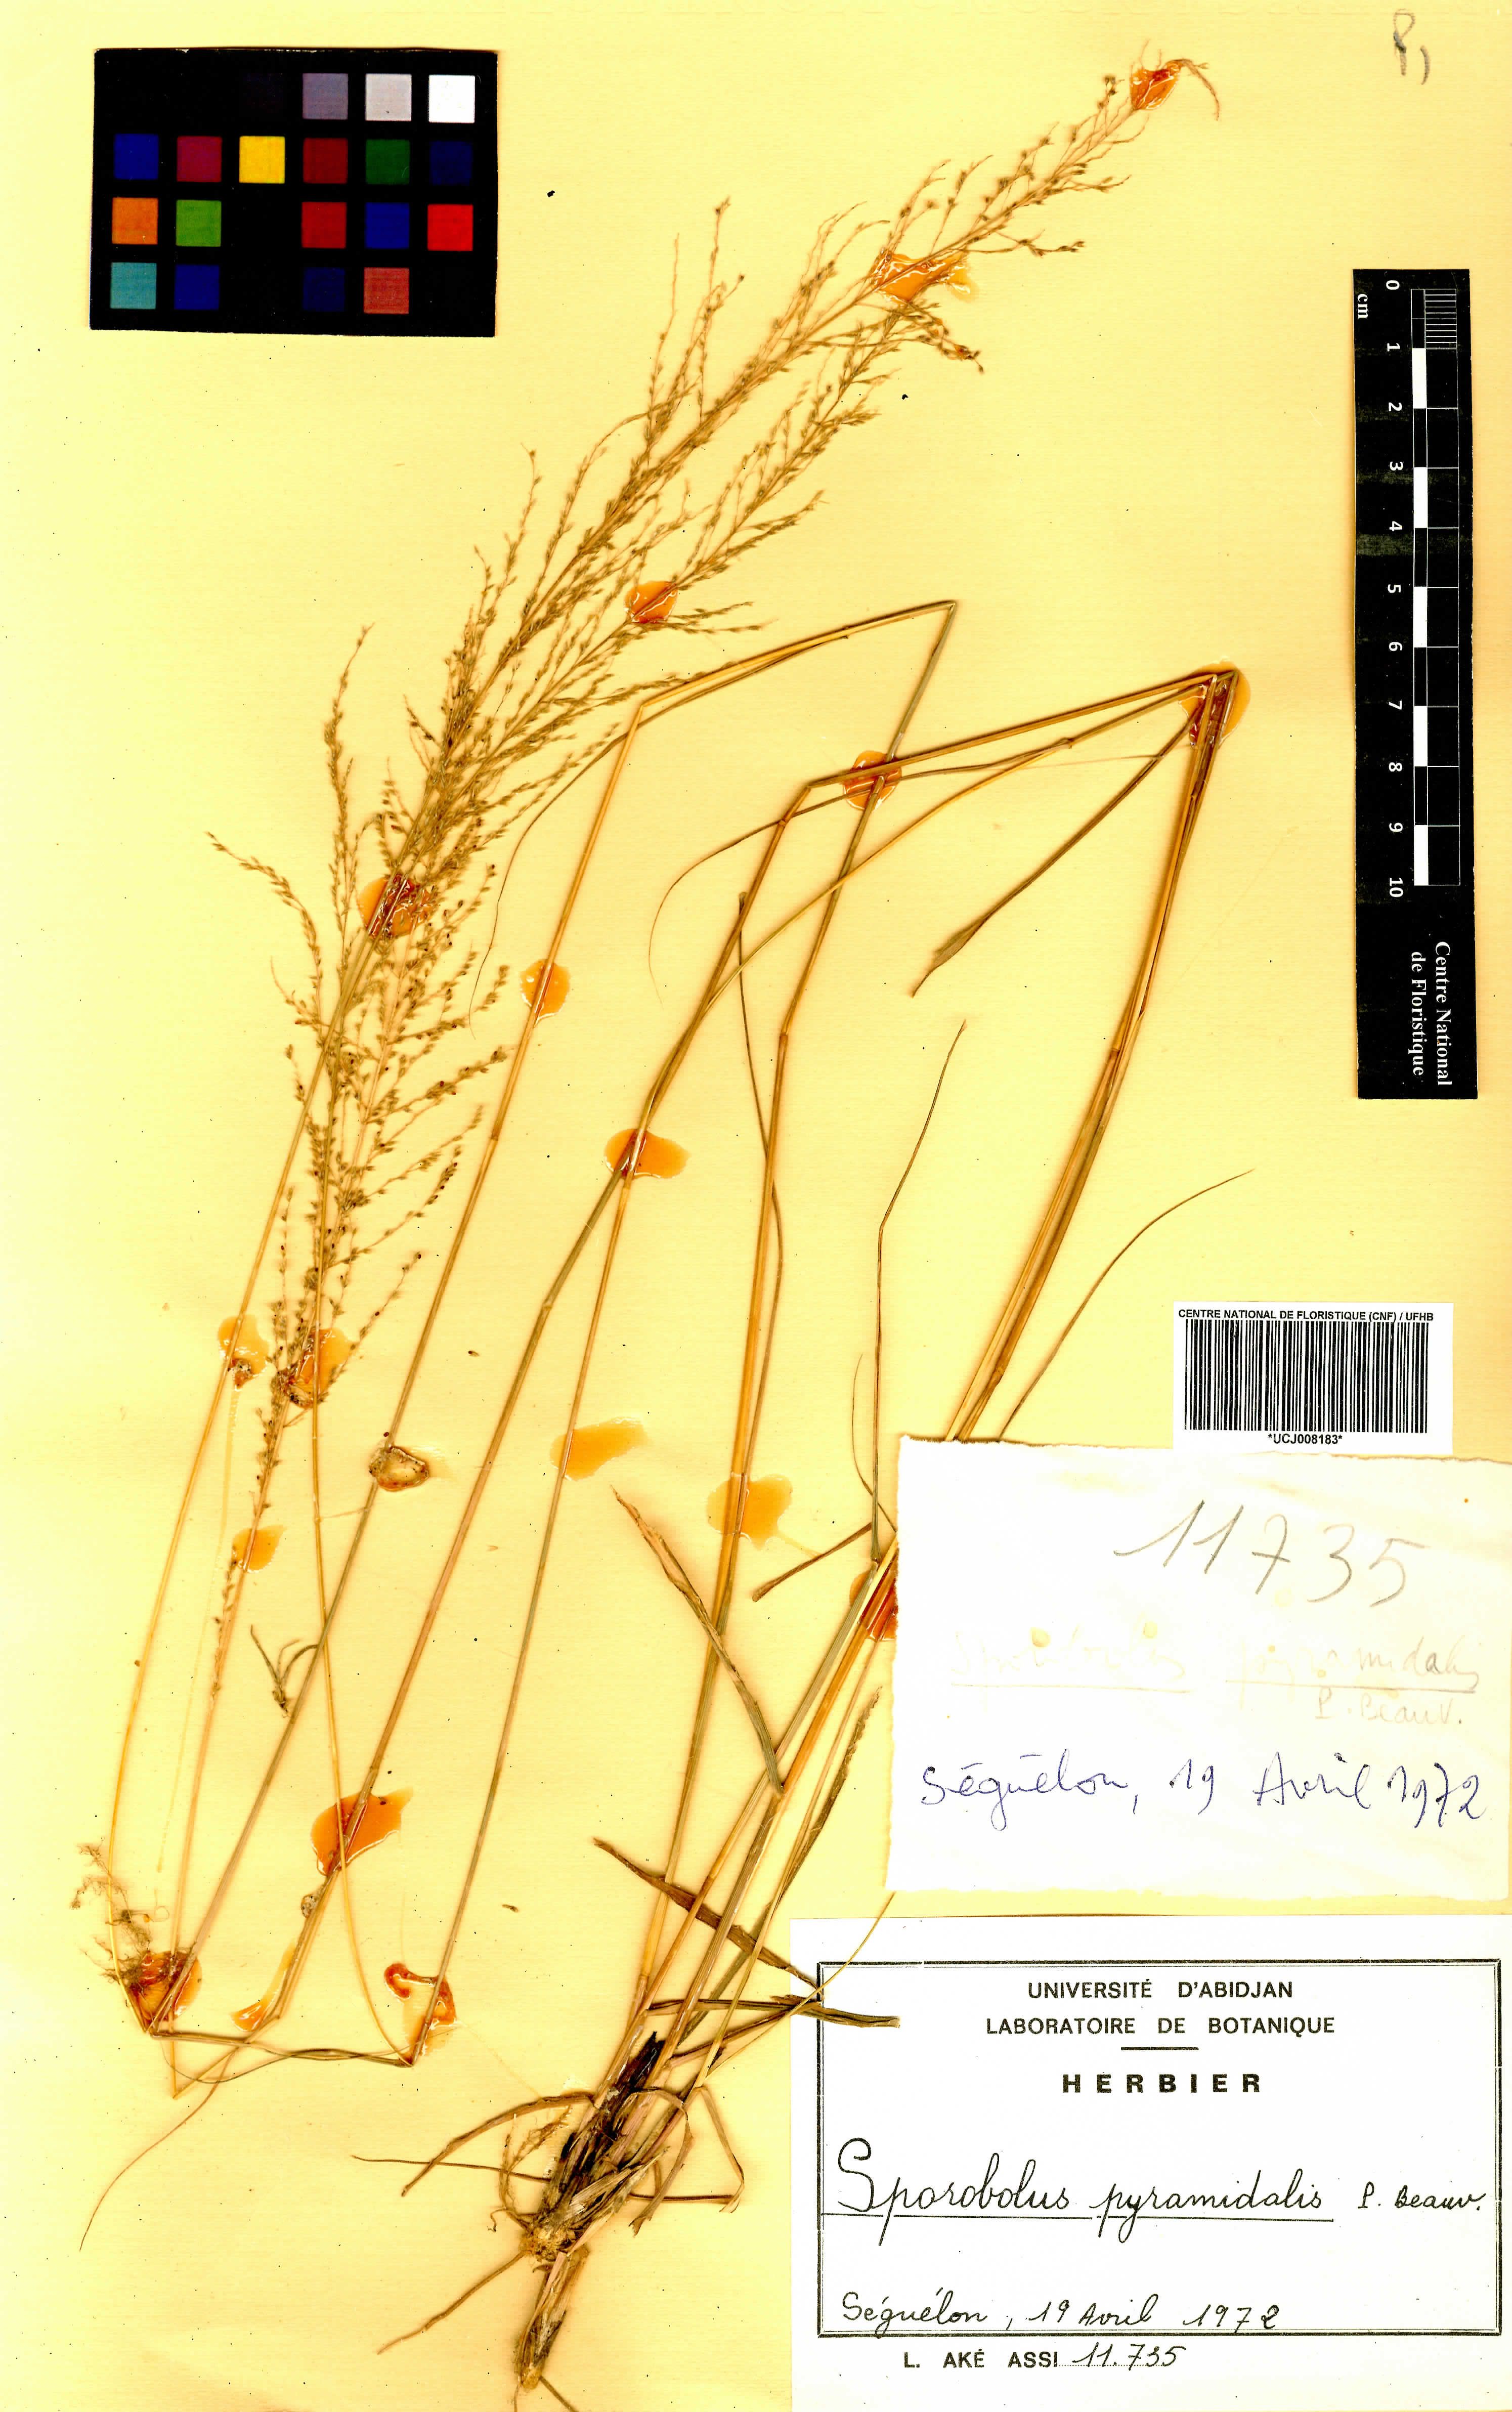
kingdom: Plantae
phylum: Tracheophyta
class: Liliopsida
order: Poales
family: Poaceae
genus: Sporobolus
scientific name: Sporobolus pyramidalis
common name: West indian dropseed
